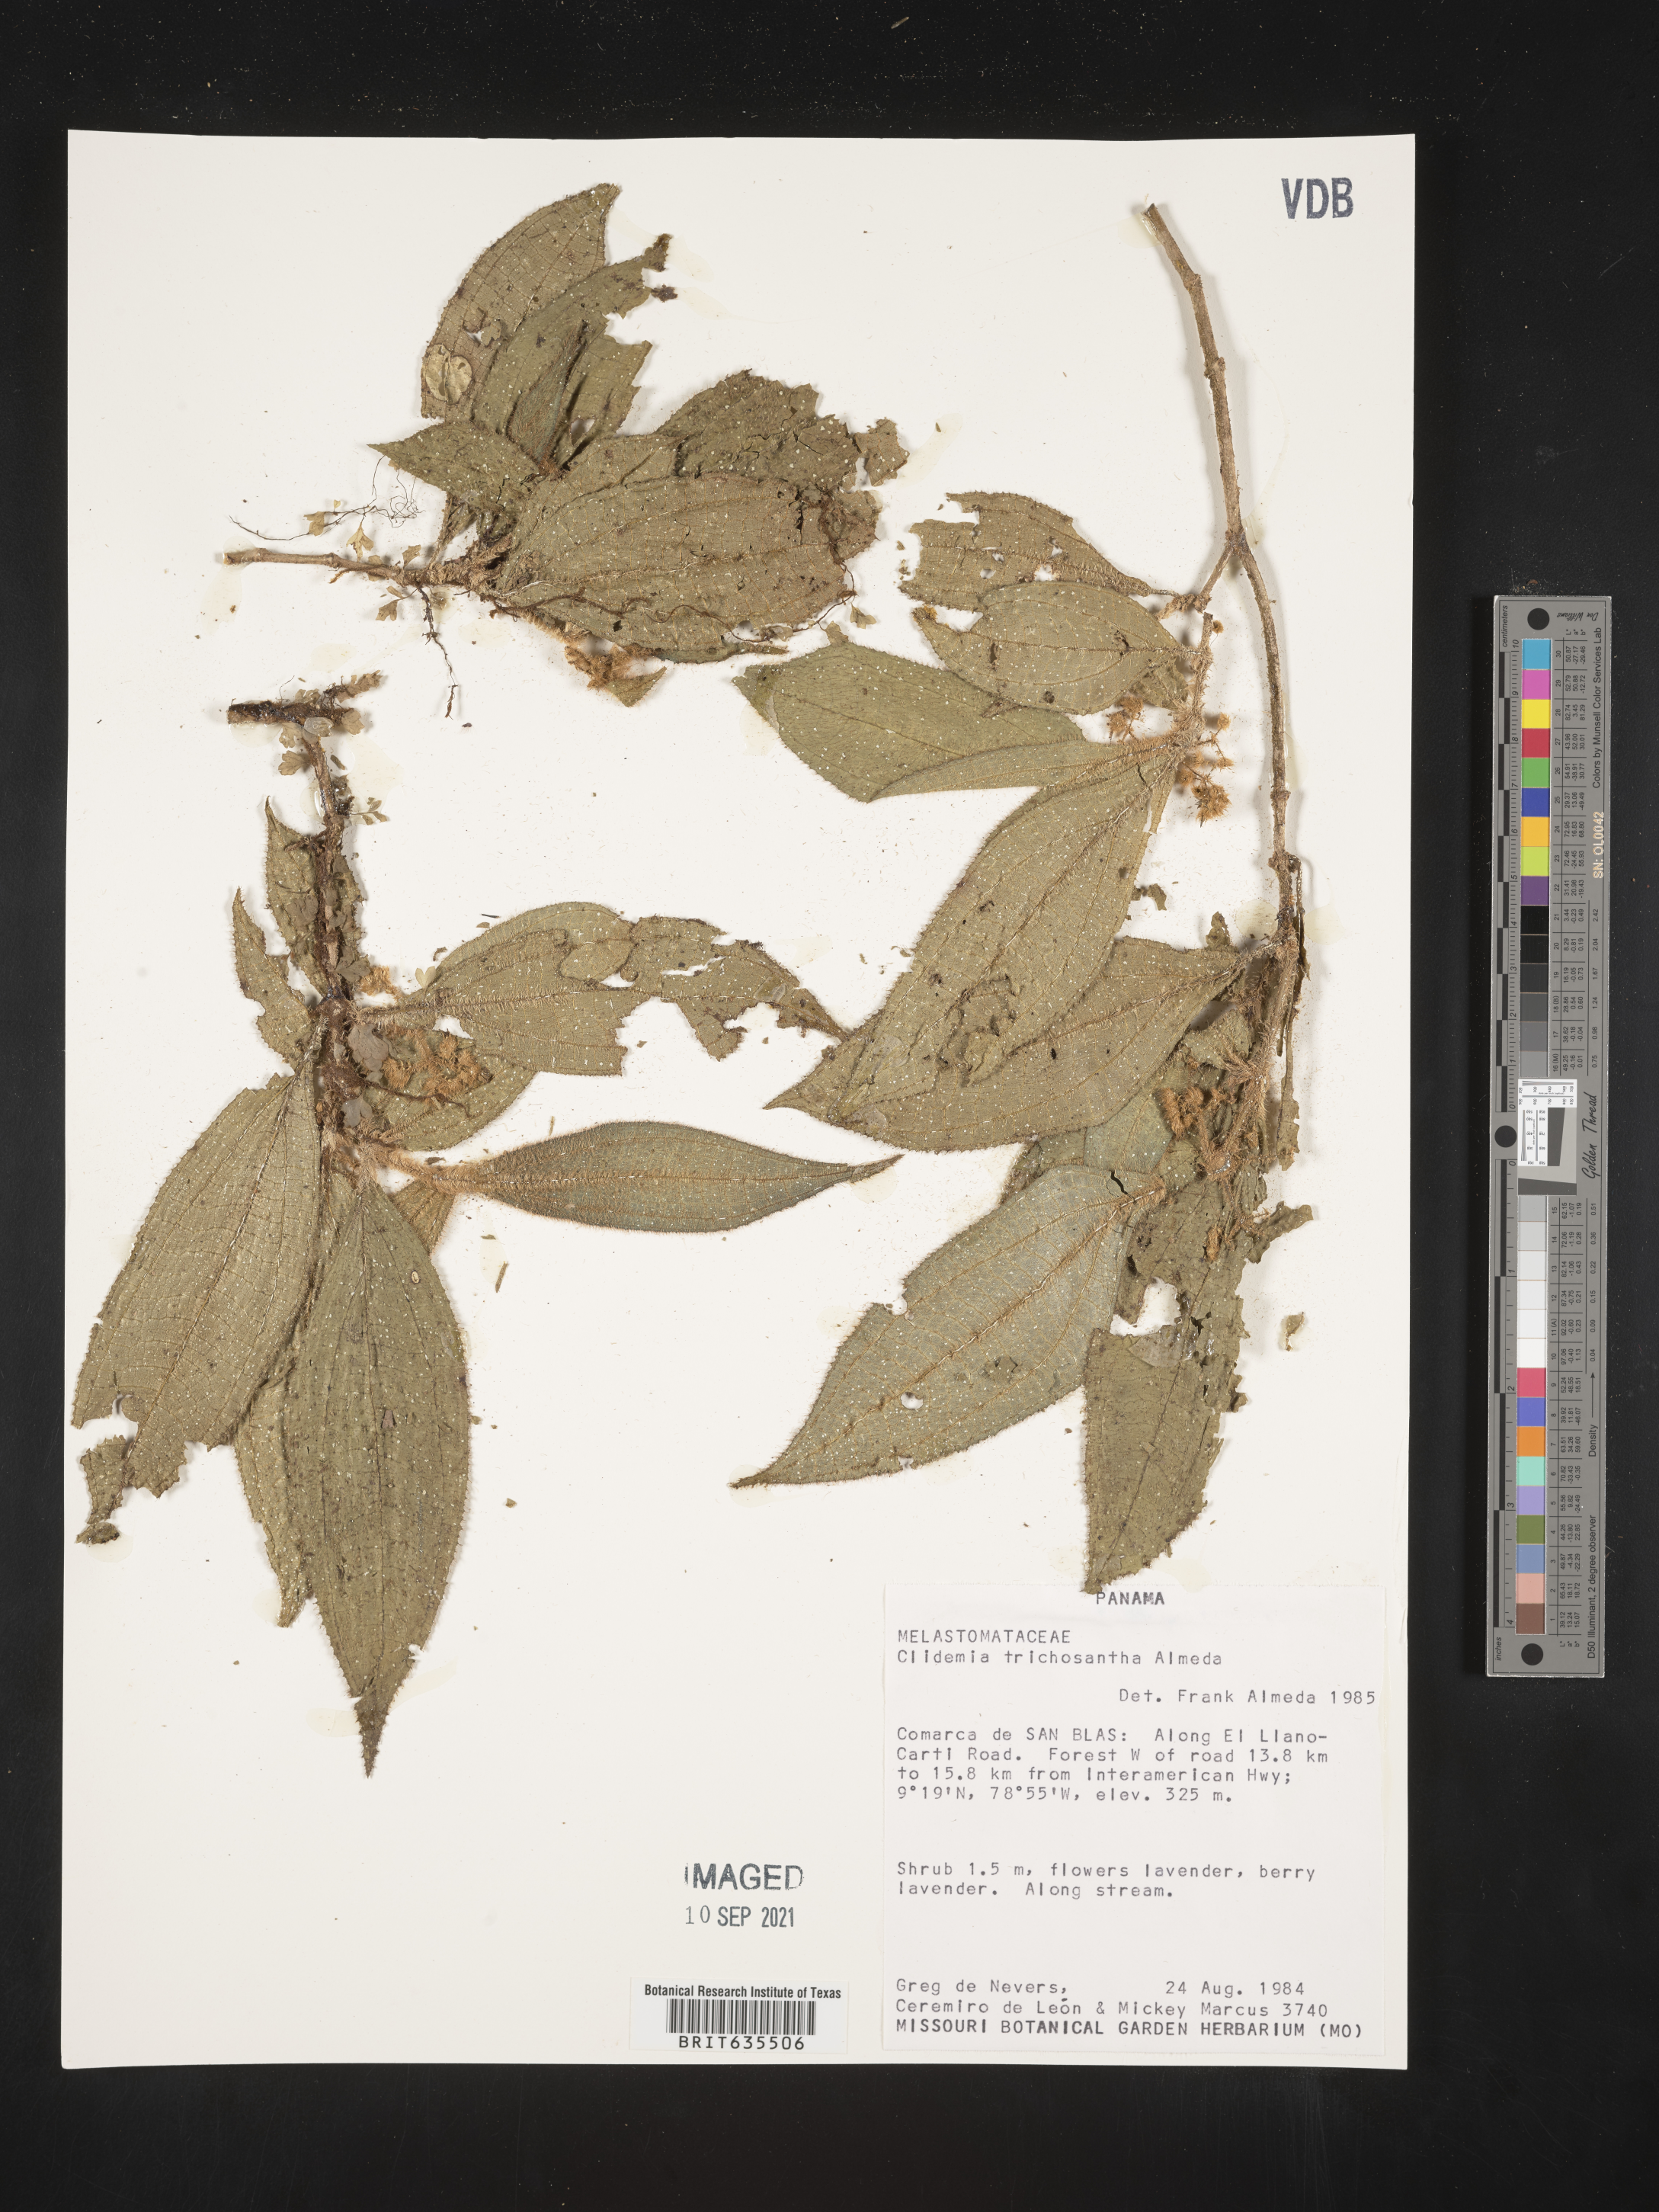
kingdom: Plantae
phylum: Tracheophyta
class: Magnoliopsida
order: Myrtales
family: Melastomataceae
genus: Miconia
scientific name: Miconia
